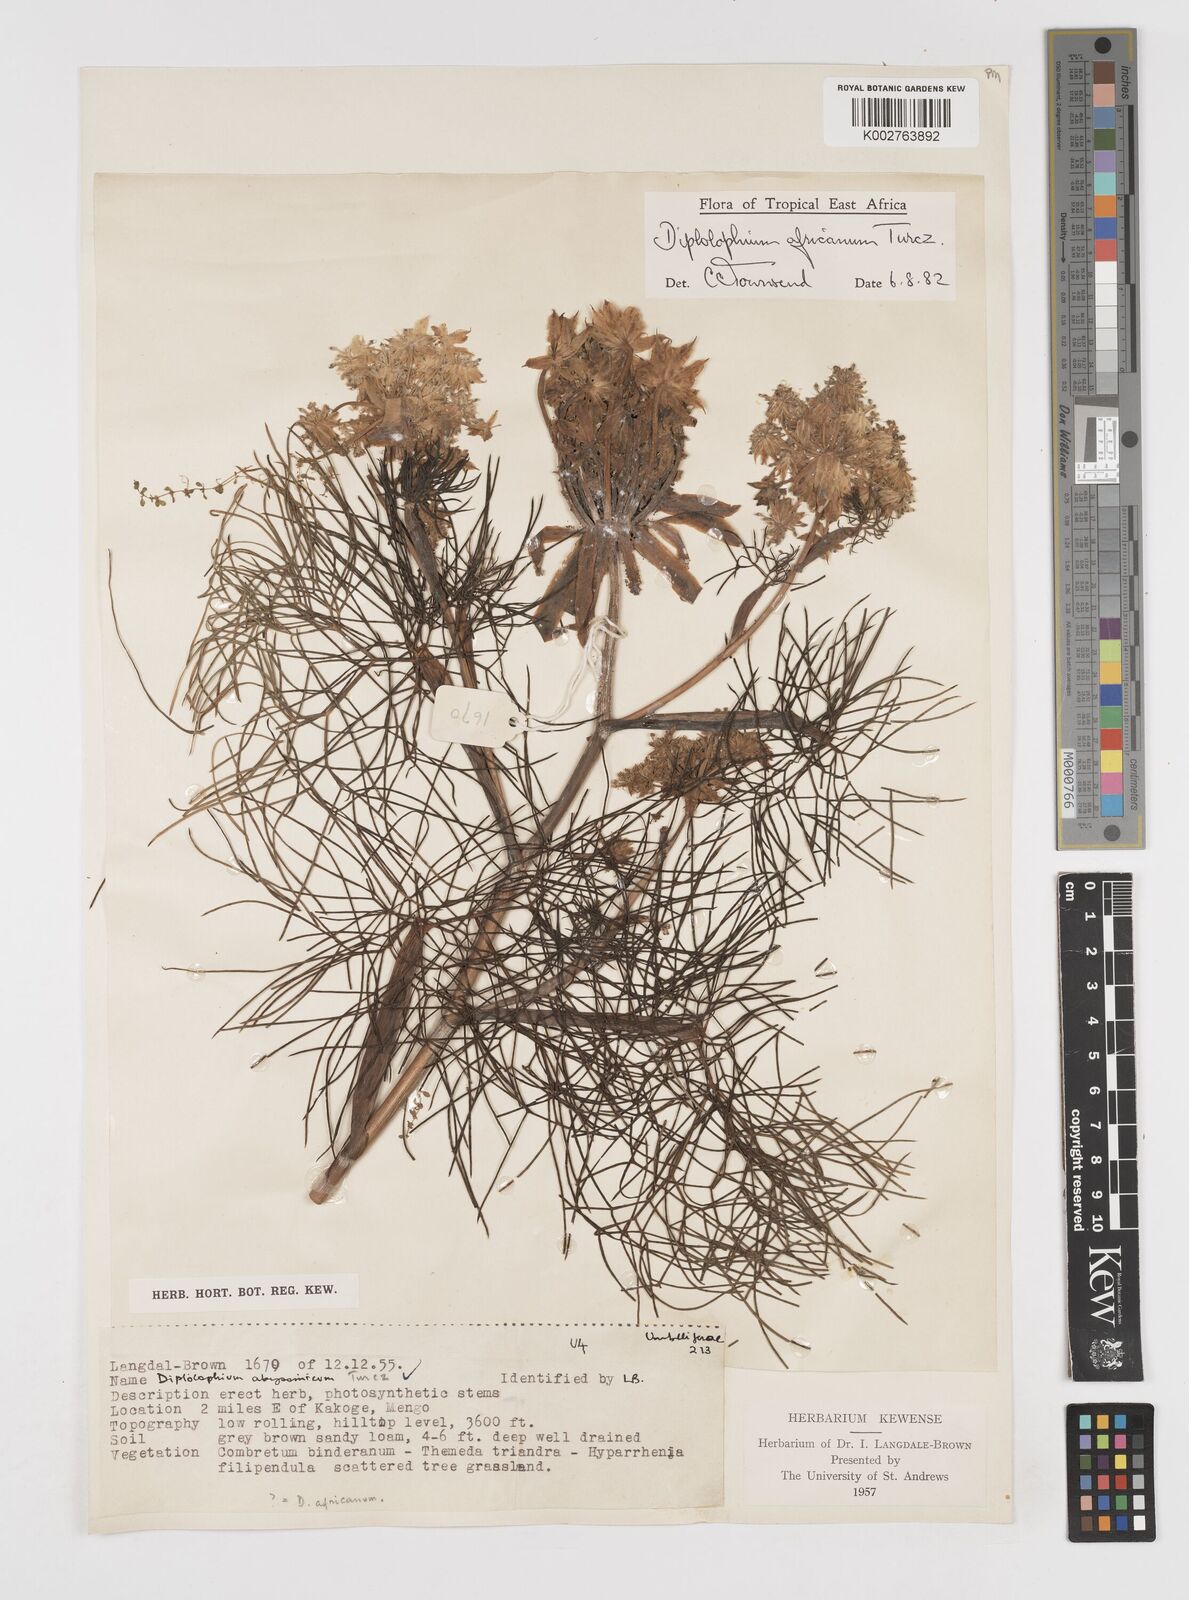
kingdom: Plantae
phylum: Tracheophyta
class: Magnoliopsida
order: Apiales
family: Apiaceae
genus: Diplolophium
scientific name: Diplolophium africanum
